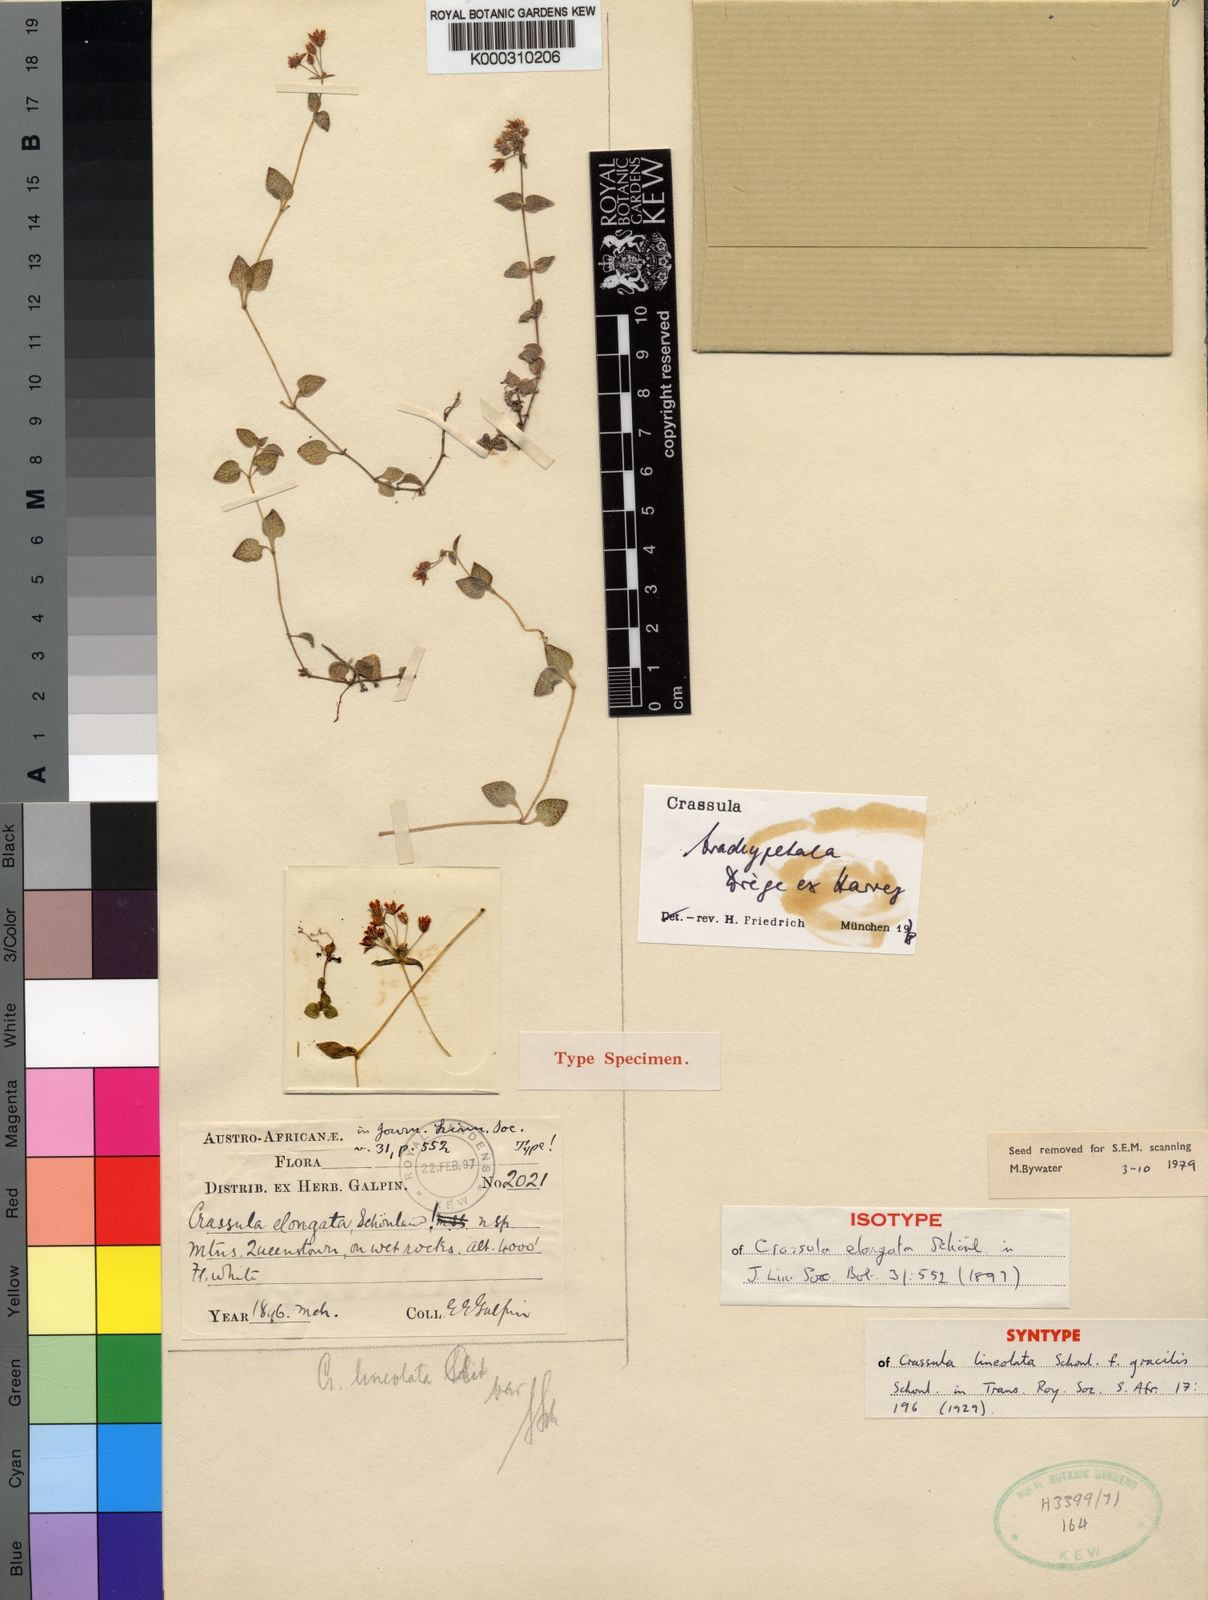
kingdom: Plantae
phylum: Tracheophyta
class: Magnoliopsida
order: Saxifragales
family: Crassulaceae
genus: Crassula
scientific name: Crassula pellucida
